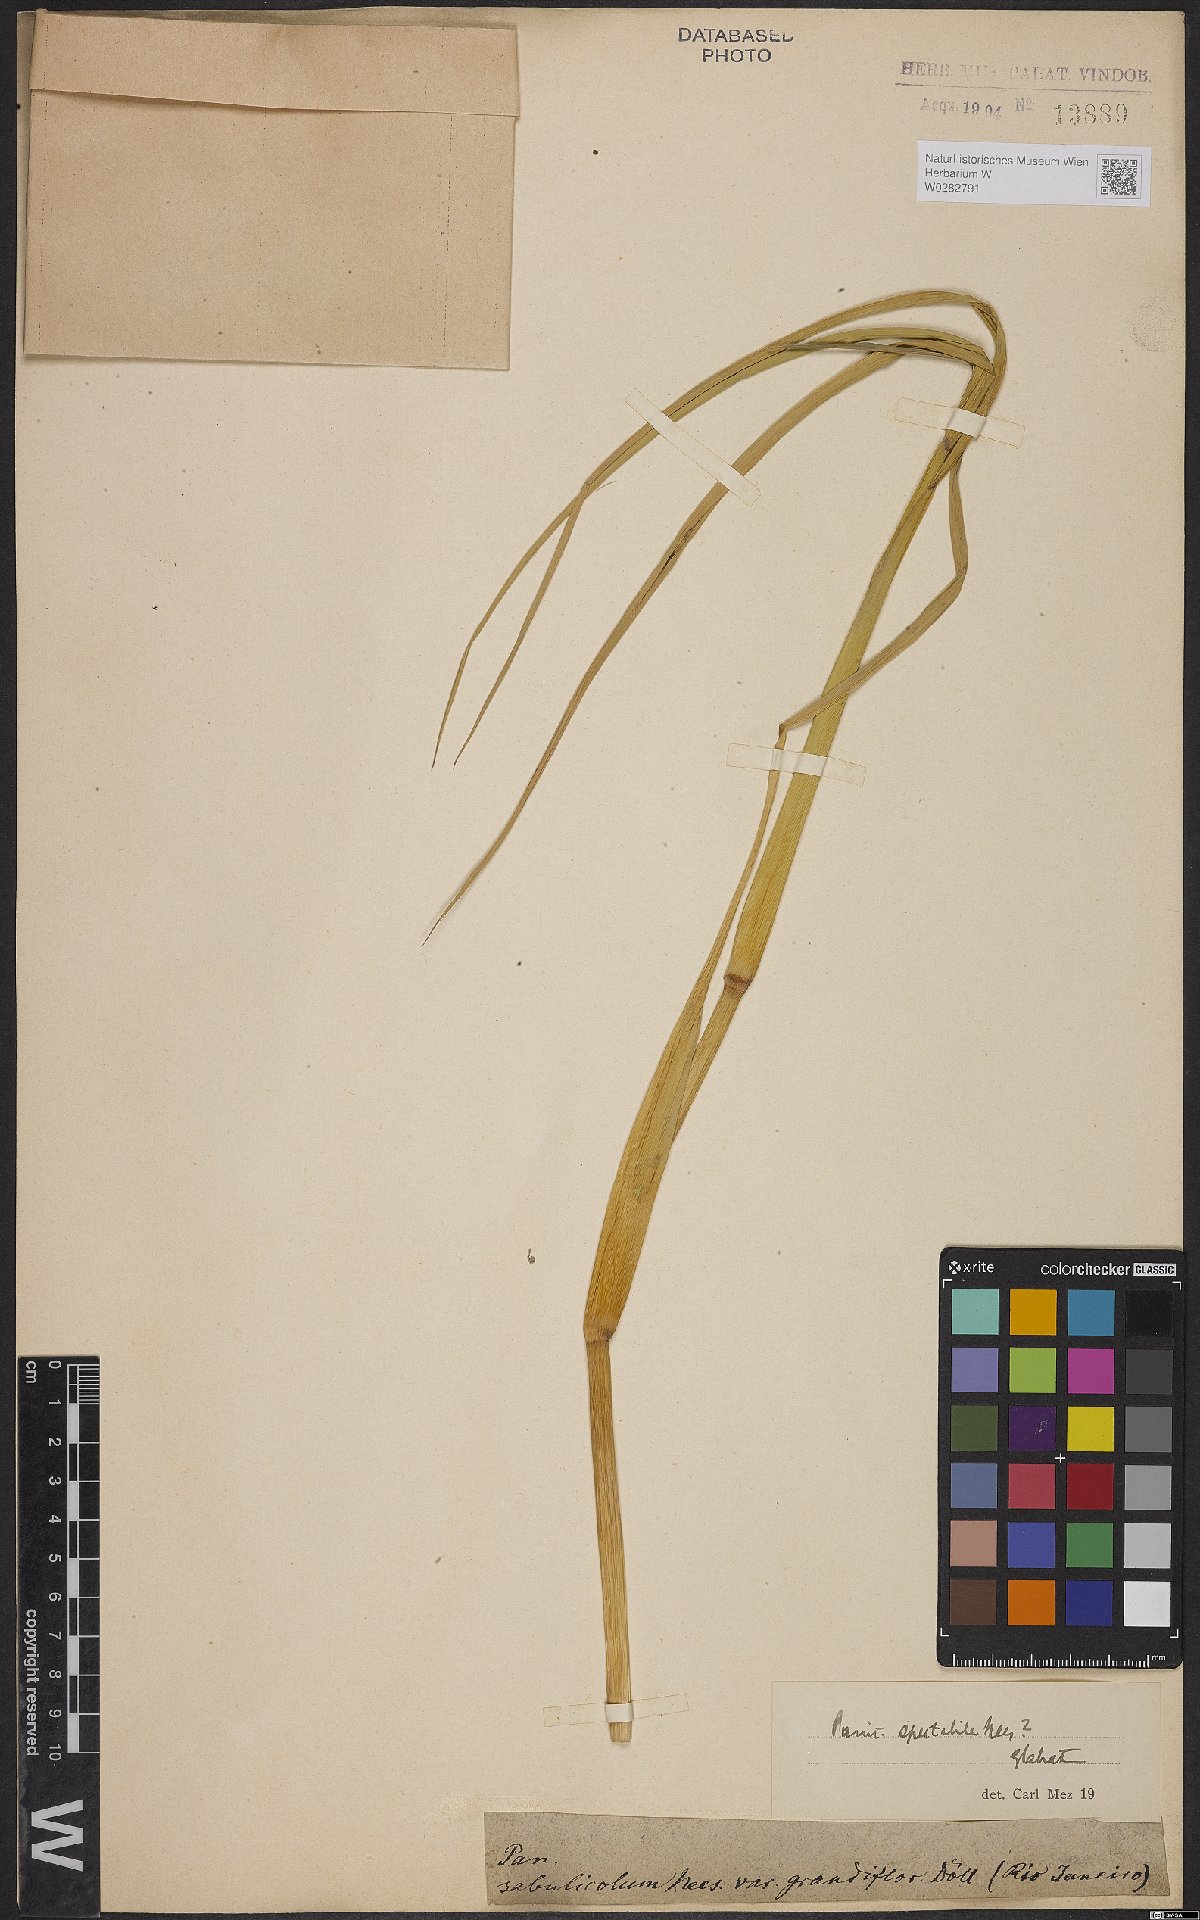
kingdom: Plantae
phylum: Tracheophyta
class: Liliopsida
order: Poales
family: Poaceae
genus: Echinochloa
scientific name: Echinochloa polystachya
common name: Creeping river grass
